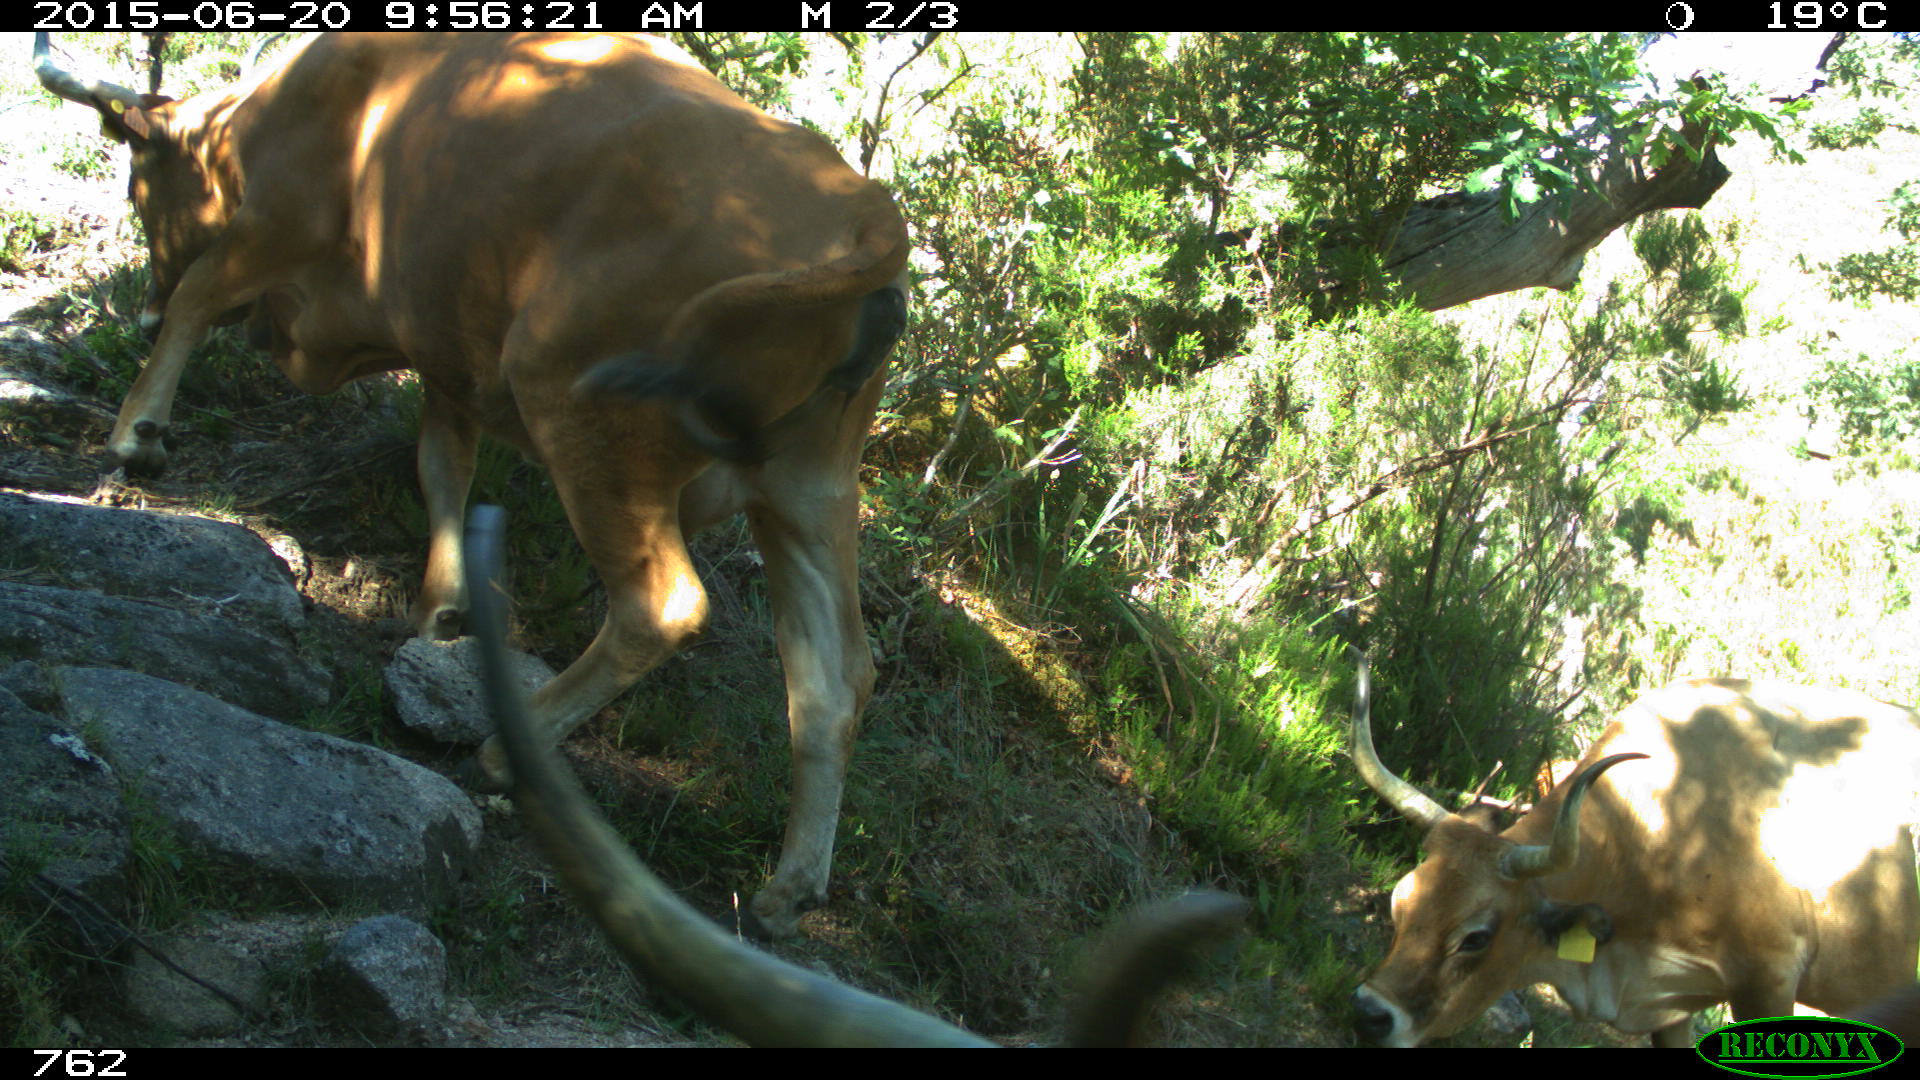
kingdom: Animalia
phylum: Chordata
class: Mammalia
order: Artiodactyla
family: Bovidae
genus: Bos
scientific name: Bos taurus
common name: Domesticated cattle
